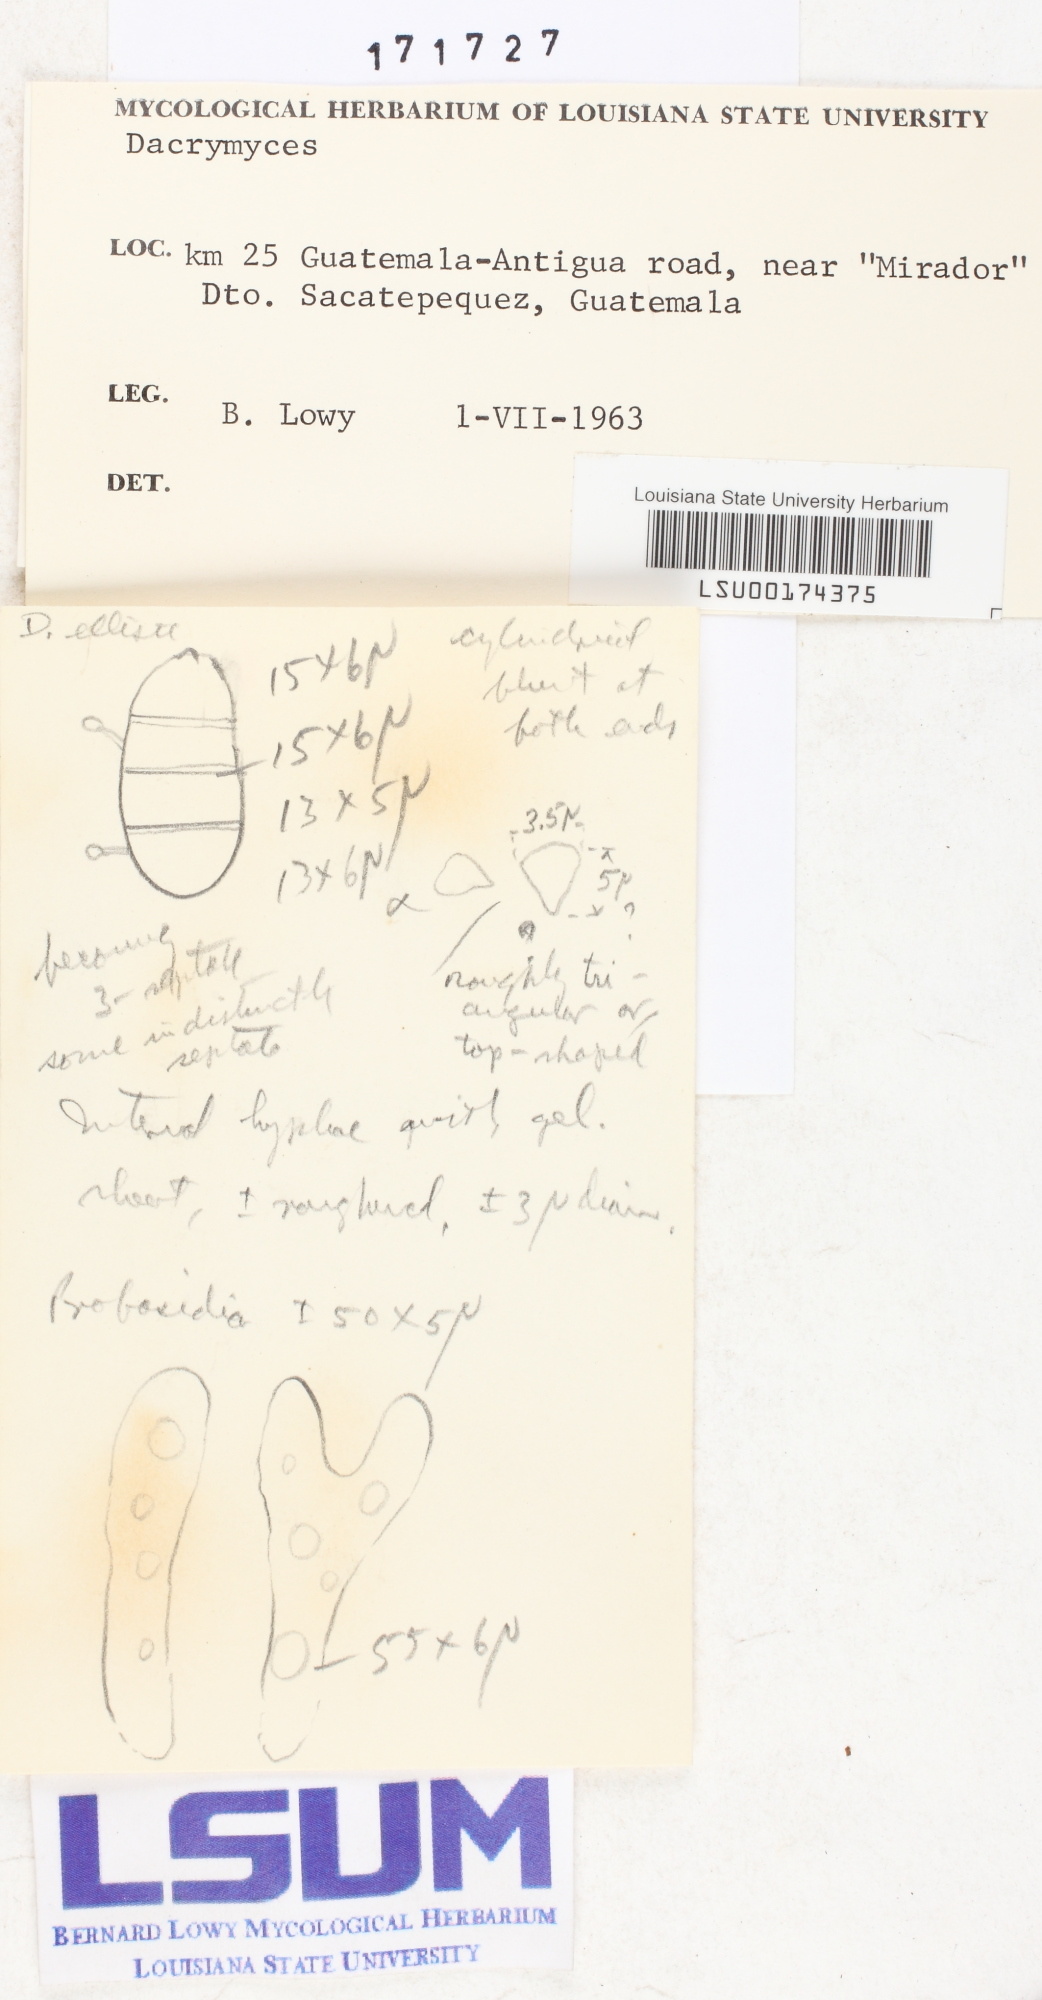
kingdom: Fungi
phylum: Basidiomycota
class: Dacrymycetes
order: Dacrymycetales
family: Dacrymycetaceae
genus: Dacrymyces
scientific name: Dacrymyces
